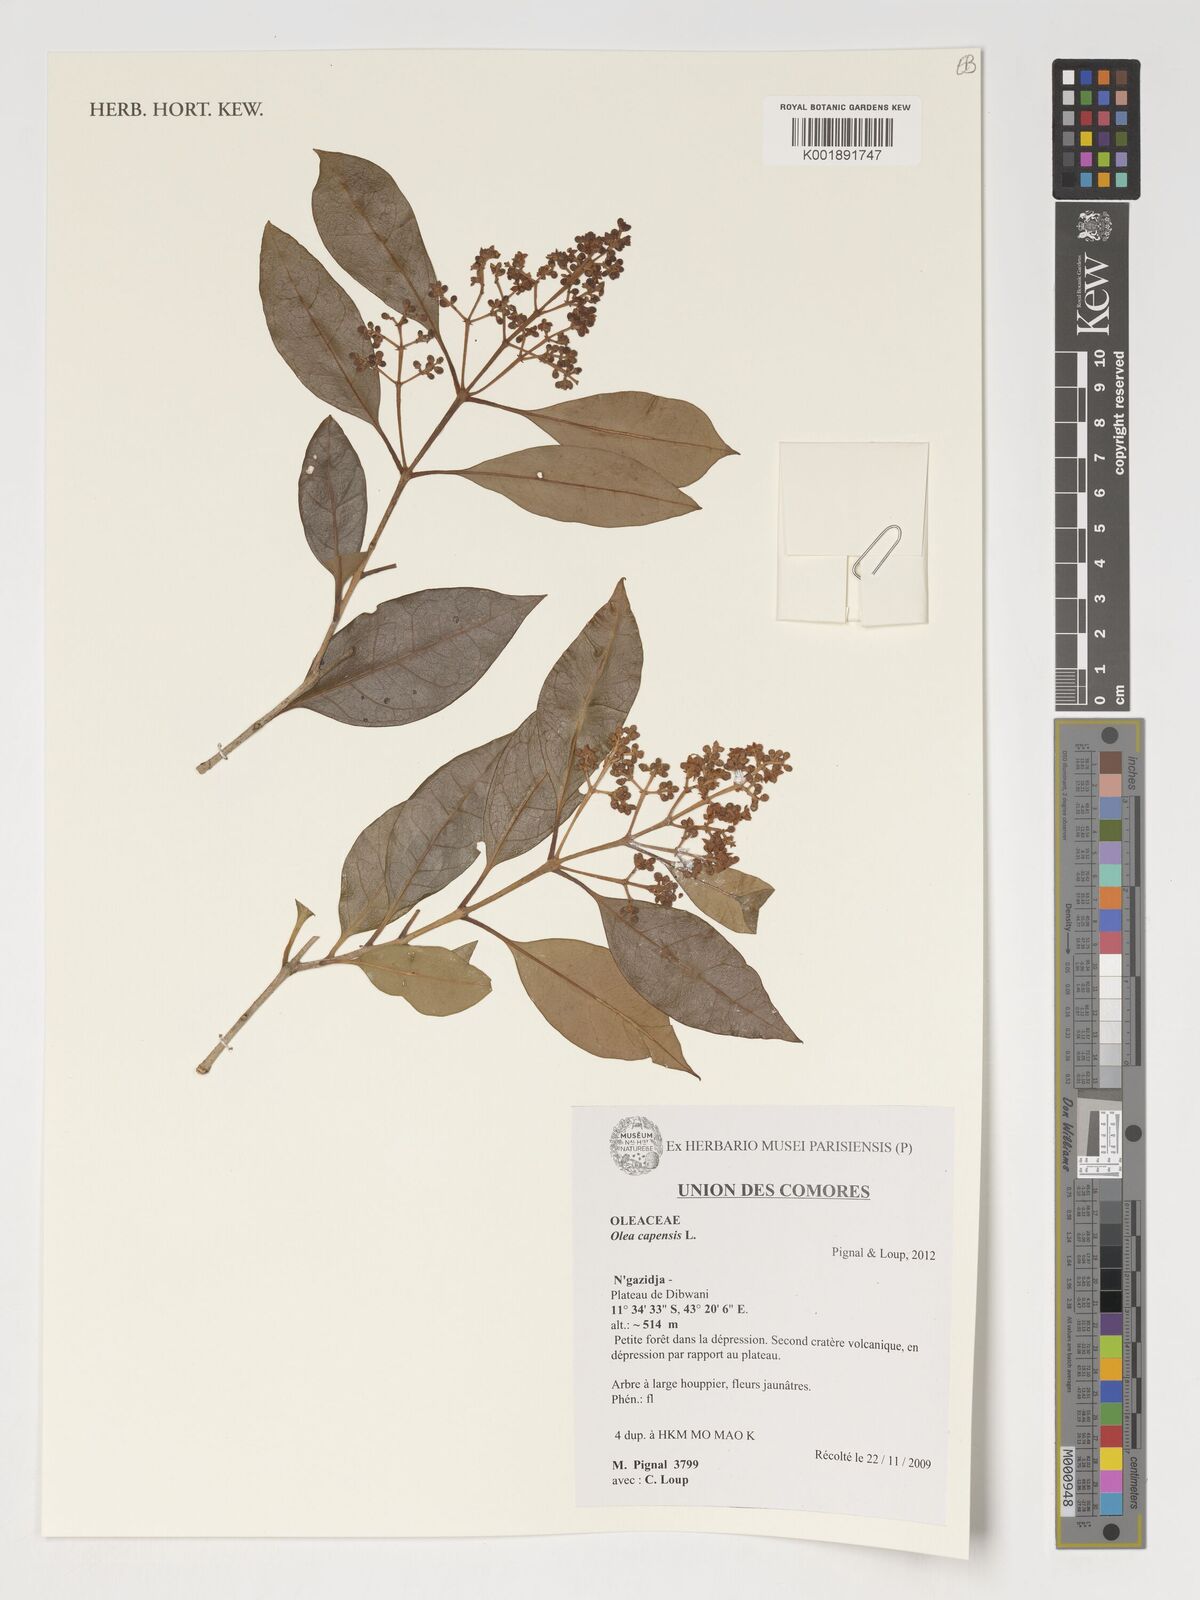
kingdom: Plantae
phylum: Tracheophyta
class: Magnoliopsida
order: Lamiales
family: Oleaceae
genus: Olea
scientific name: Olea capensis
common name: Black ironwood
